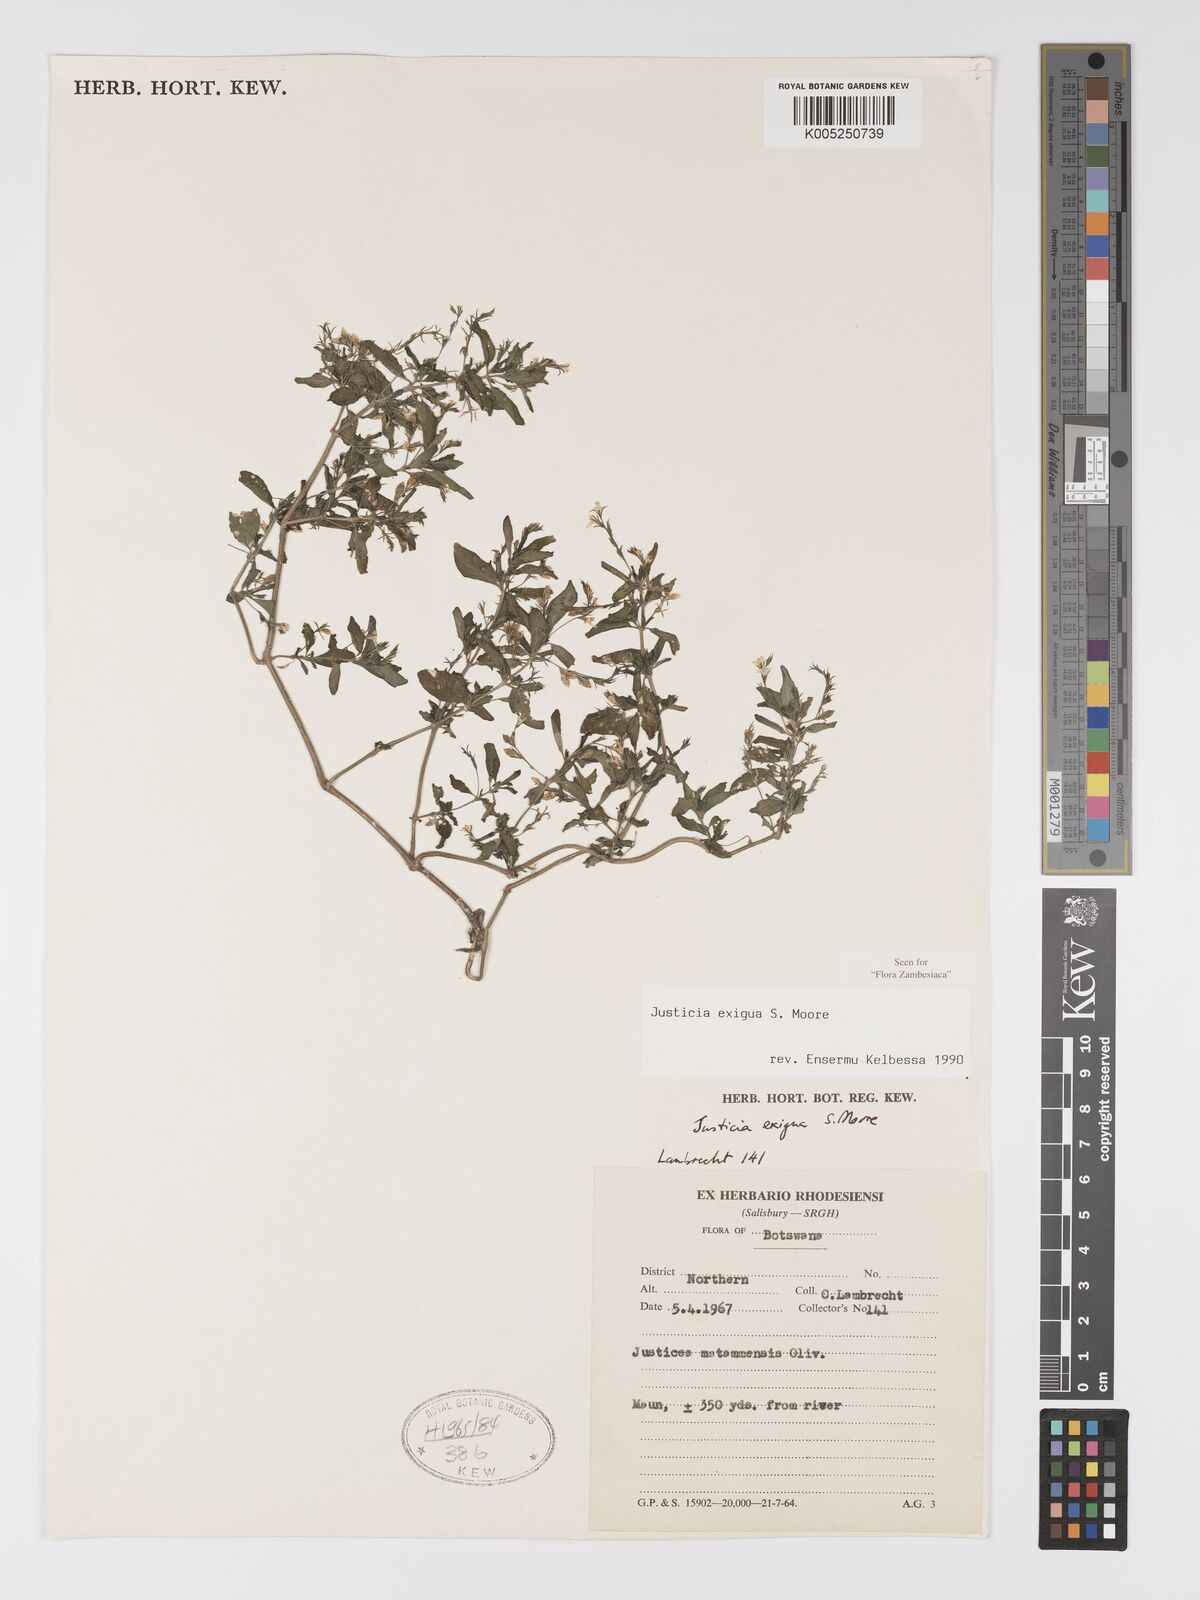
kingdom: Plantae
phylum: Tracheophyta
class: Magnoliopsida
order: Lamiales
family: Acanthaceae
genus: Justicia
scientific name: Justicia exigua
